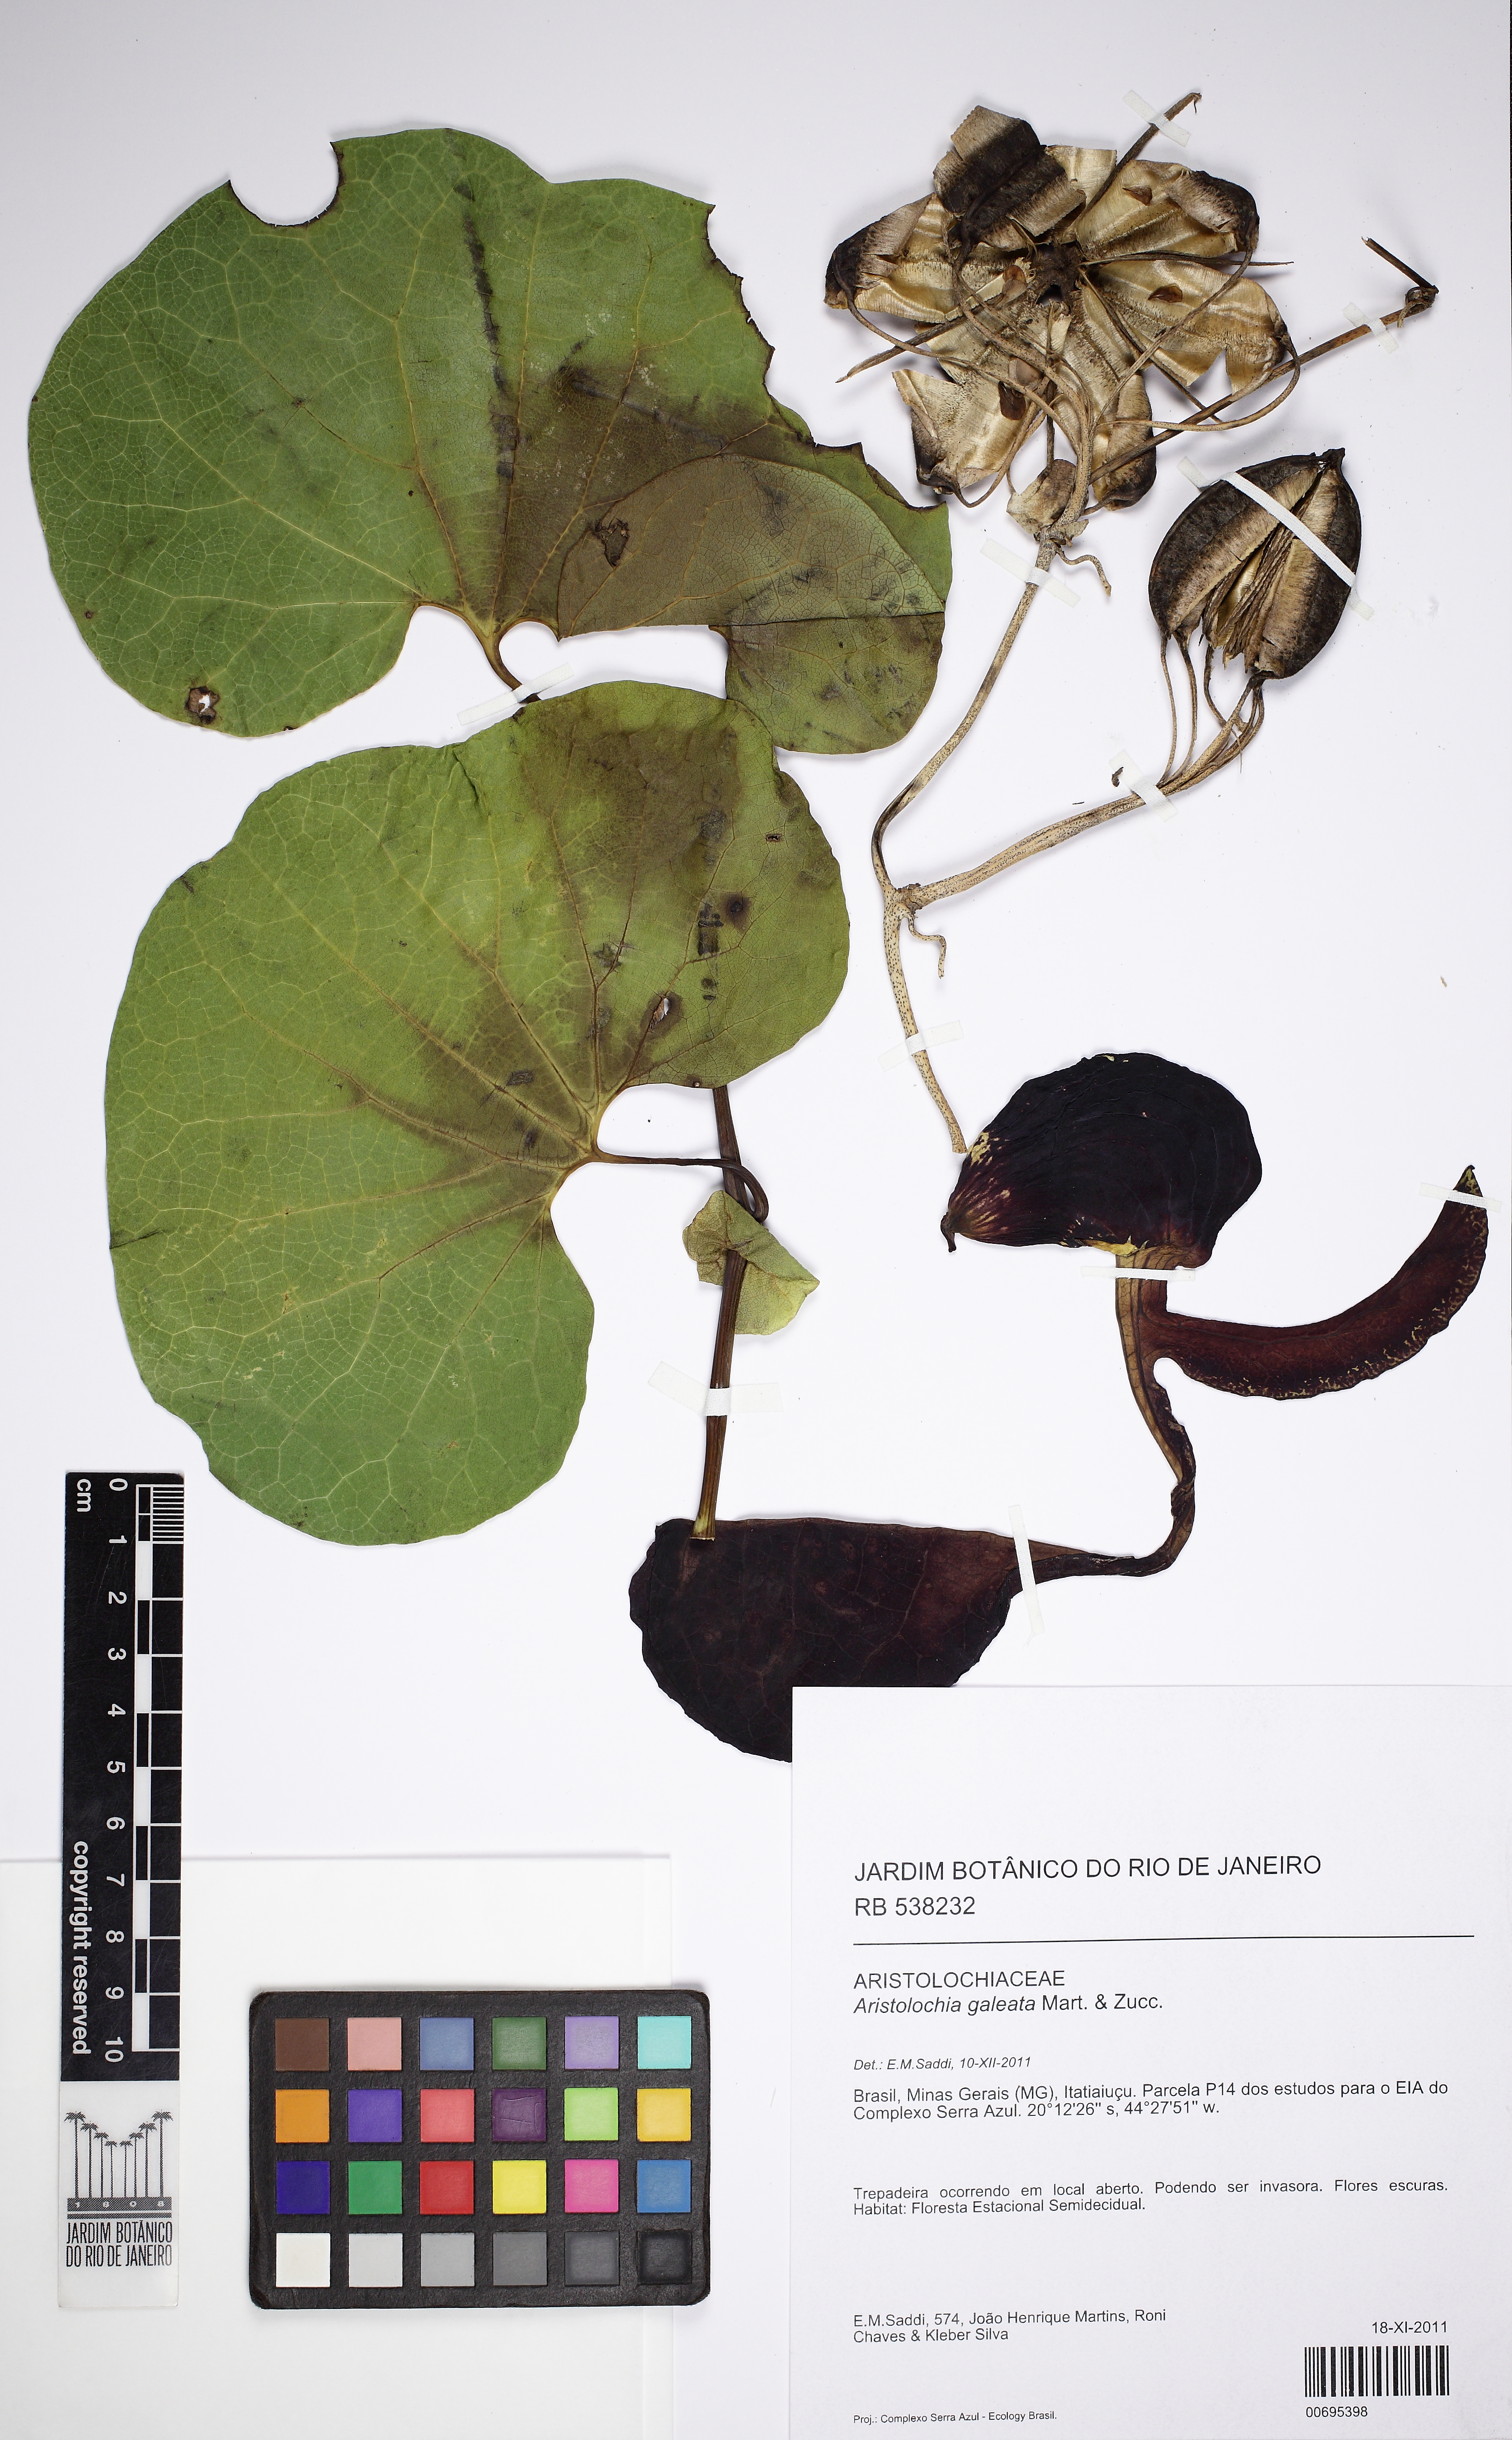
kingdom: Plantae
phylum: Tracheophyta
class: Magnoliopsida
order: Piperales
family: Aristolochiaceae
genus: Aristolochia
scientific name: Aristolochia
